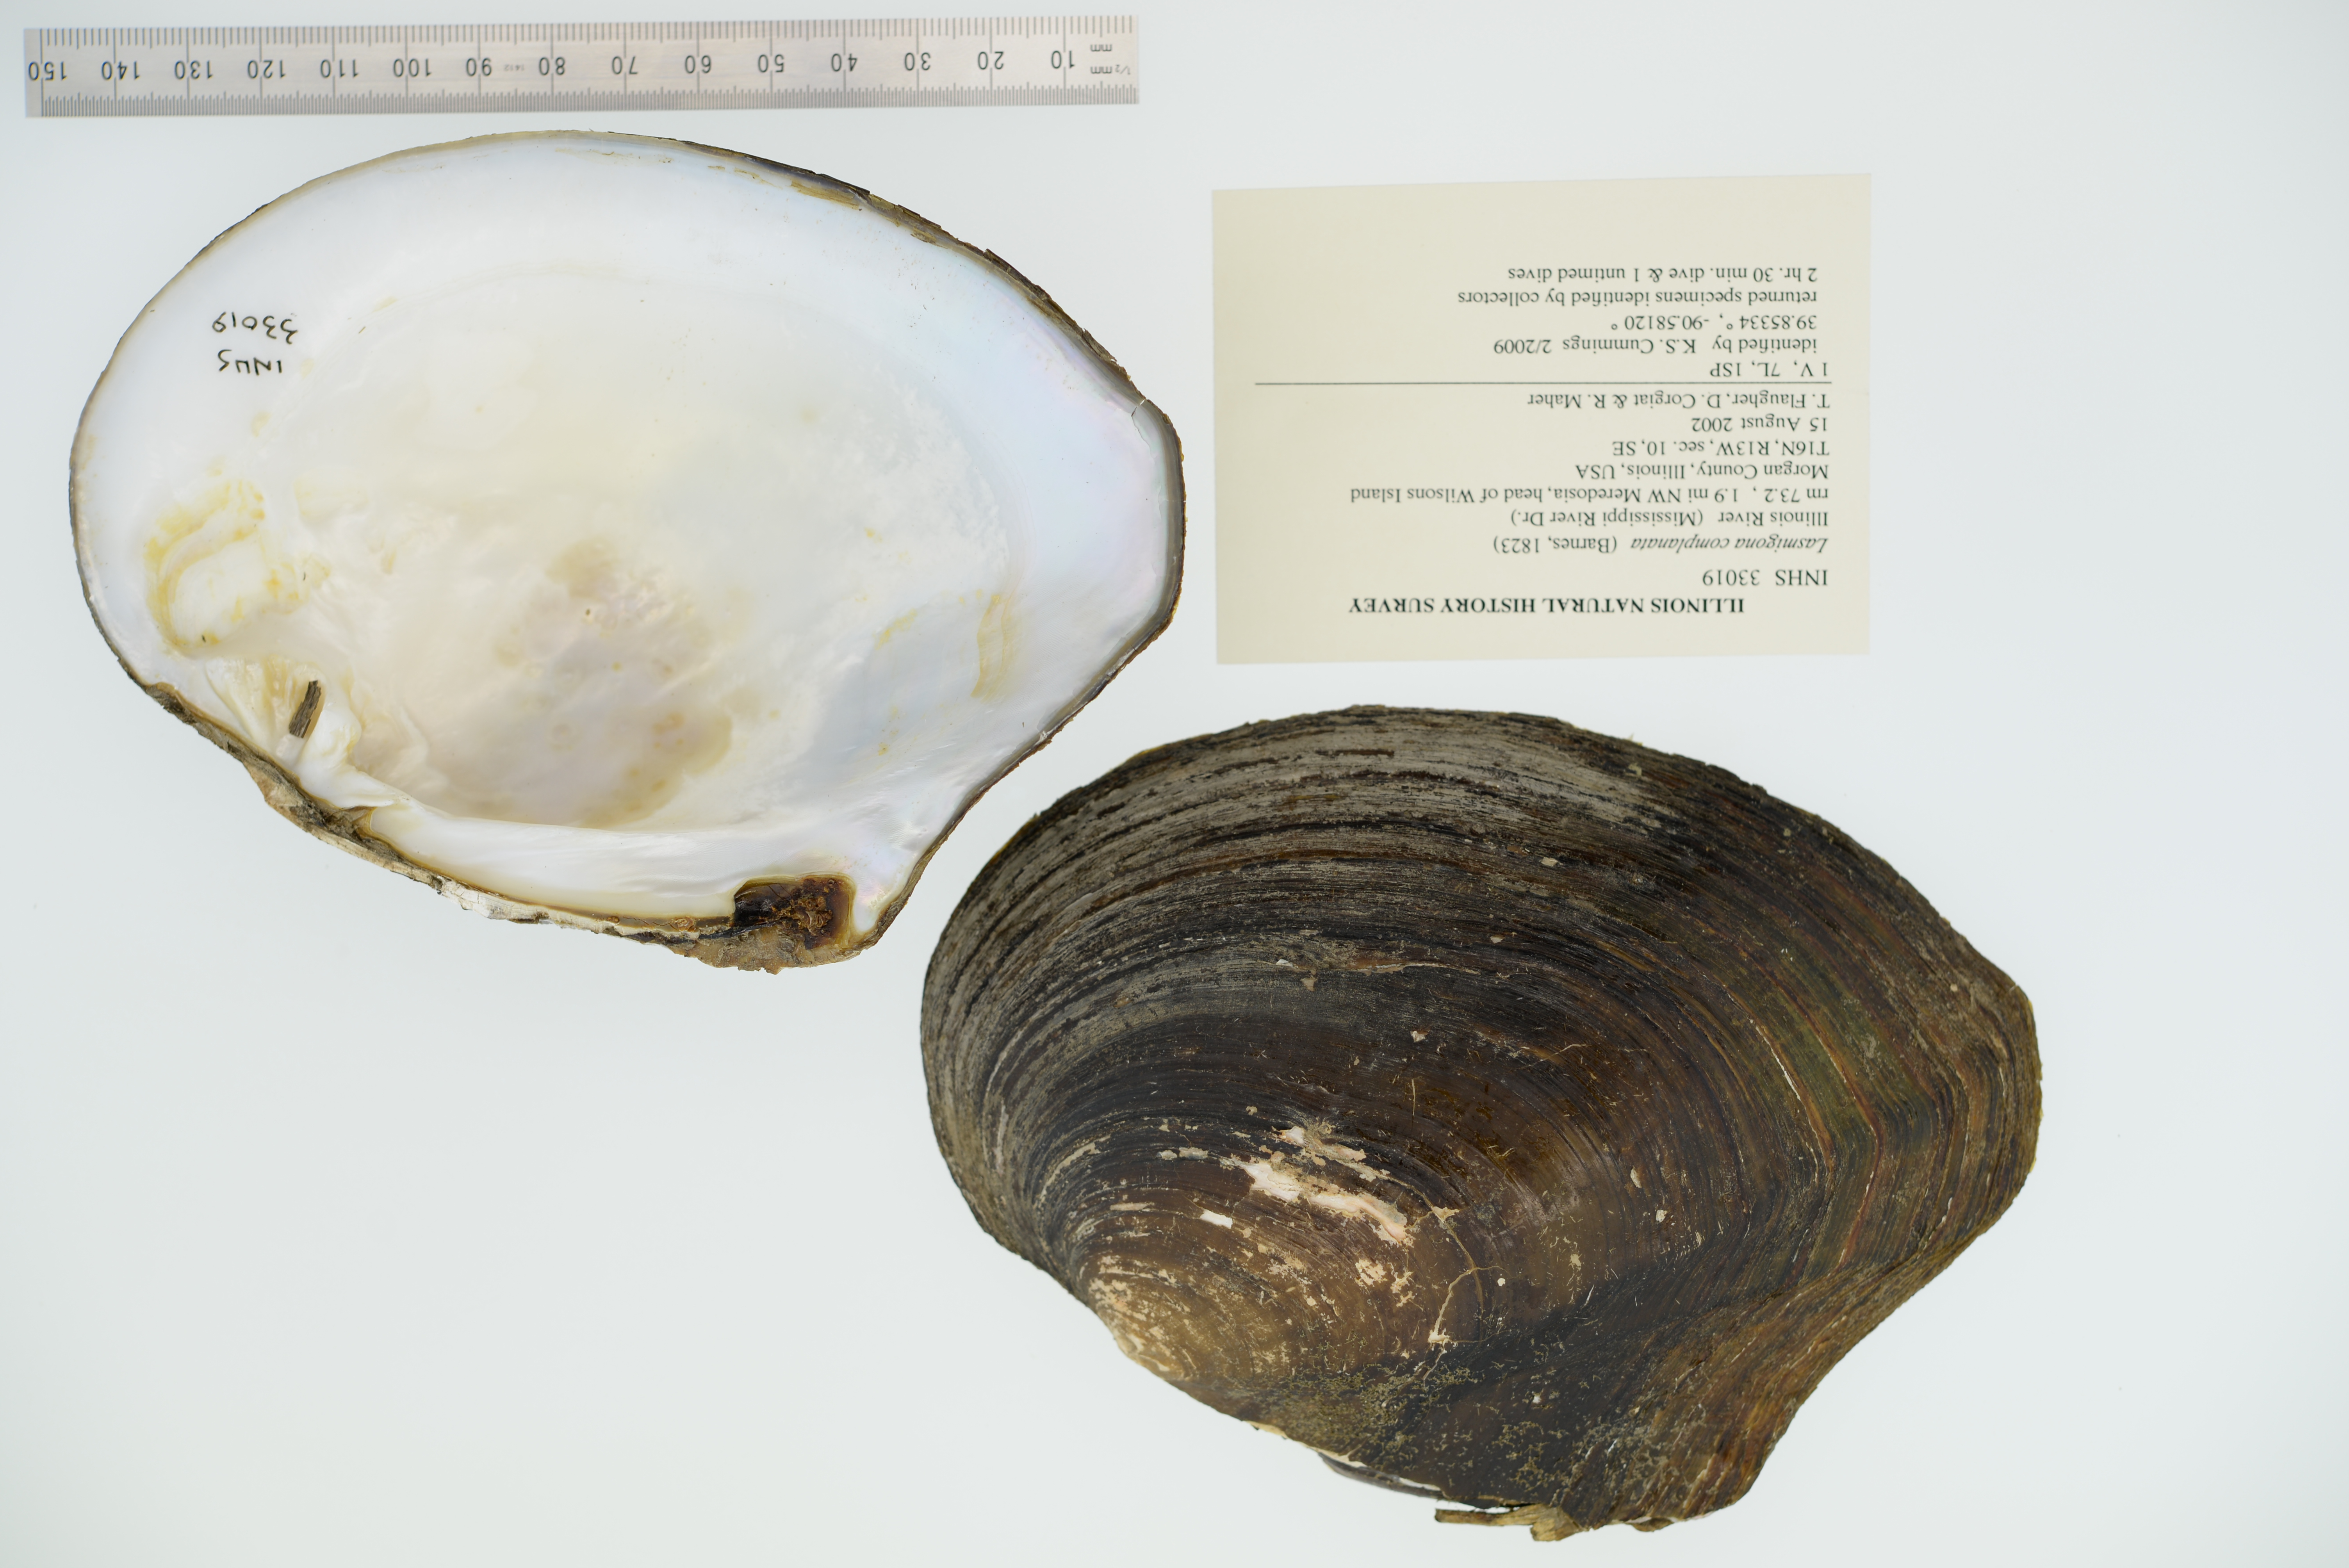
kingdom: Animalia
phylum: Mollusca
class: Bivalvia
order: Unionida
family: Unionidae
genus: Lasmigona
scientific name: Lasmigona complanata
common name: White heelsplitter
